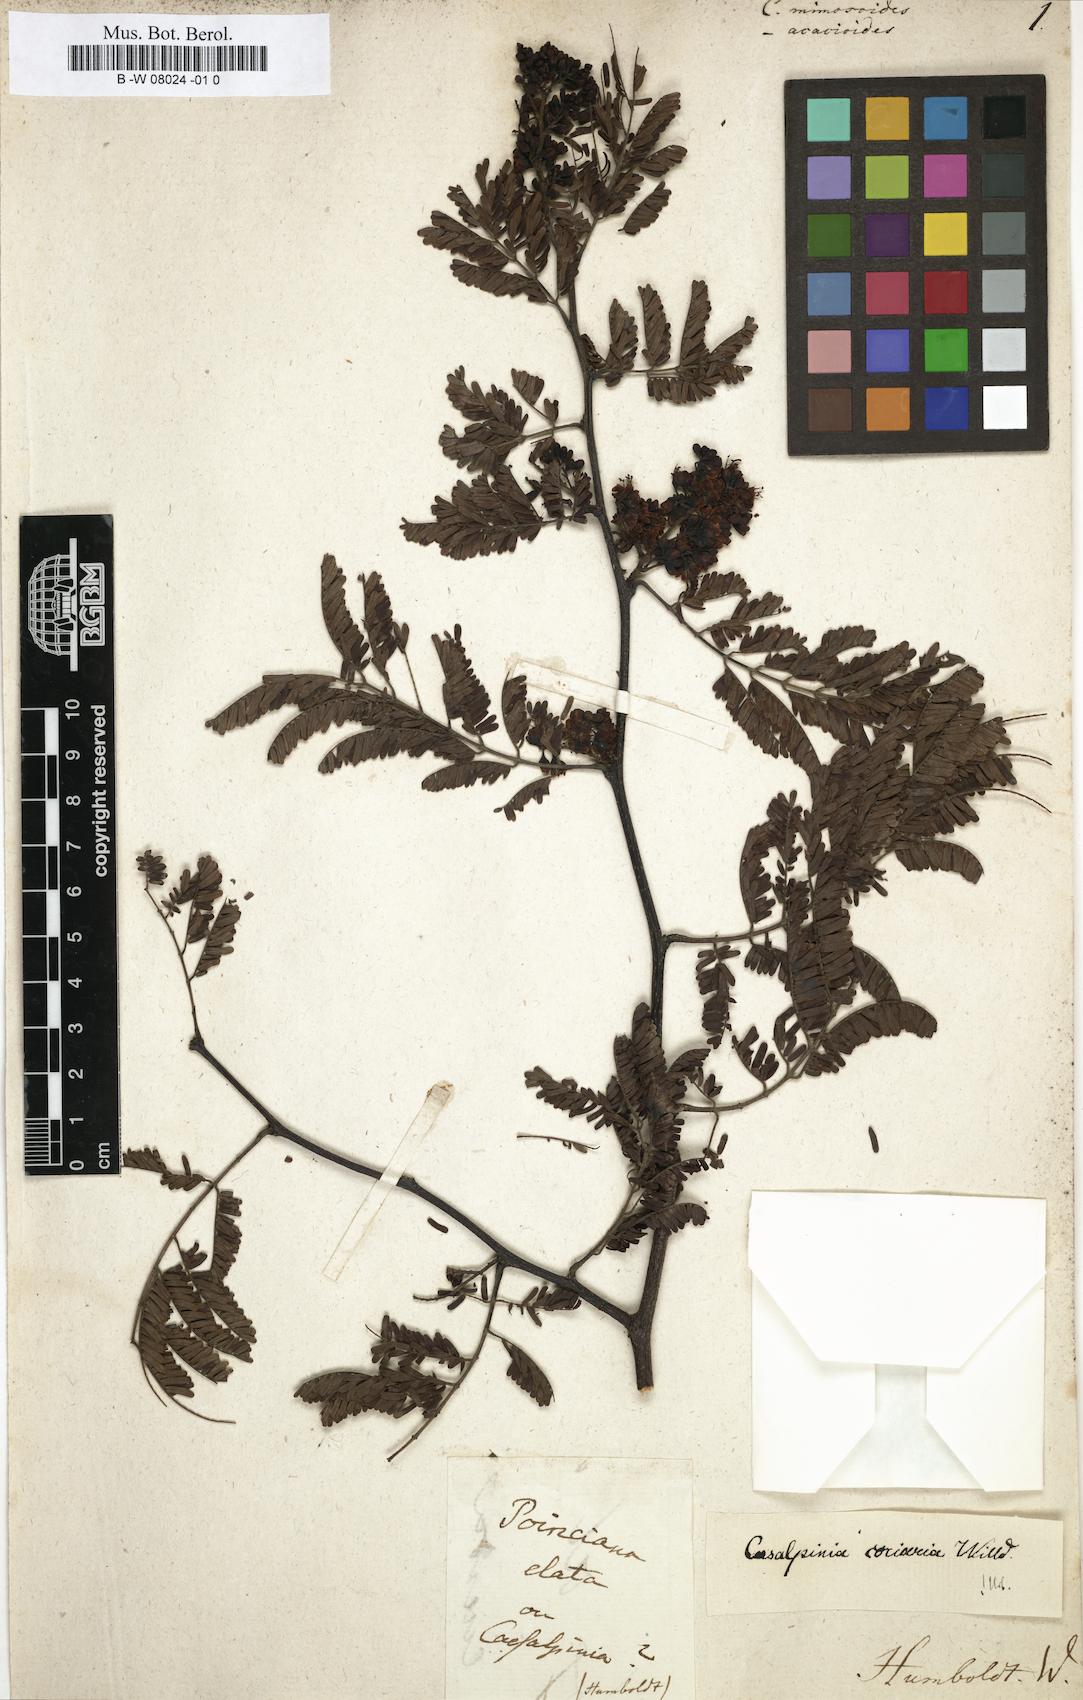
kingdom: Plantae
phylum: Tracheophyta
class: Magnoliopsida
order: Fabales
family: Fabaceae
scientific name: Fabaceae
